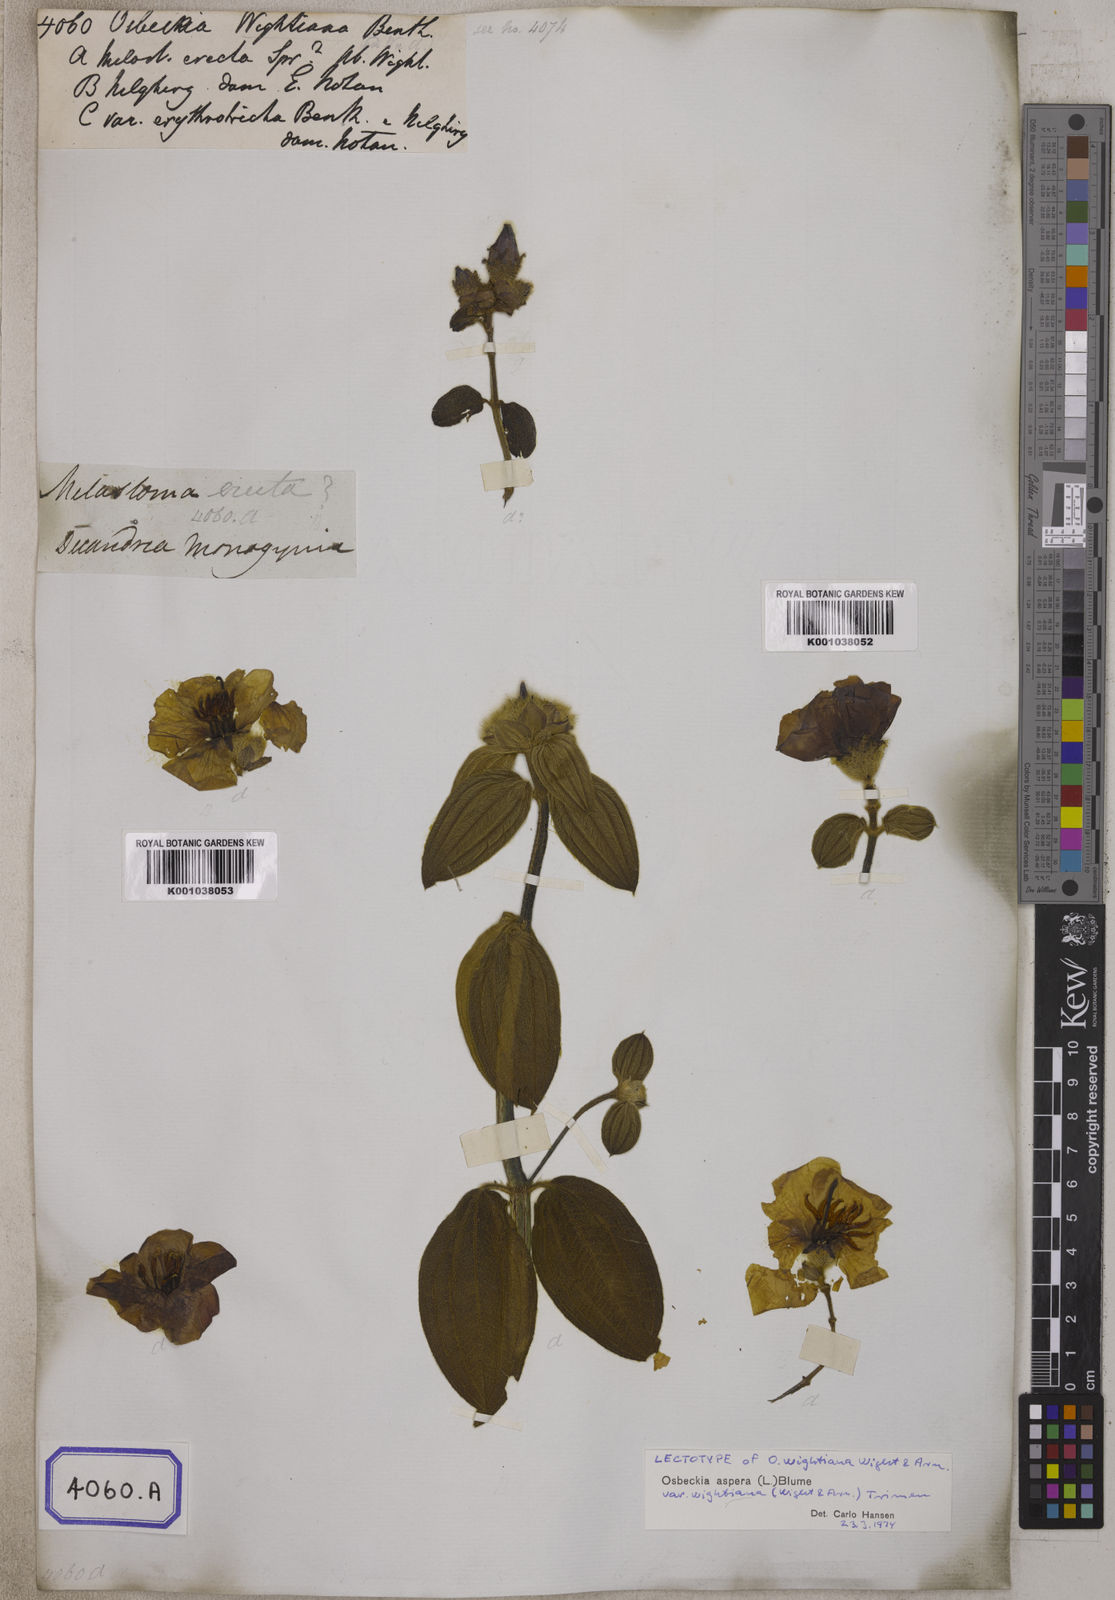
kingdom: Plantae
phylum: Tracheophyta
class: Magnoliopsida
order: Myrtales
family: Melastomataceae
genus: Osbeckia
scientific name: Osbeckia
